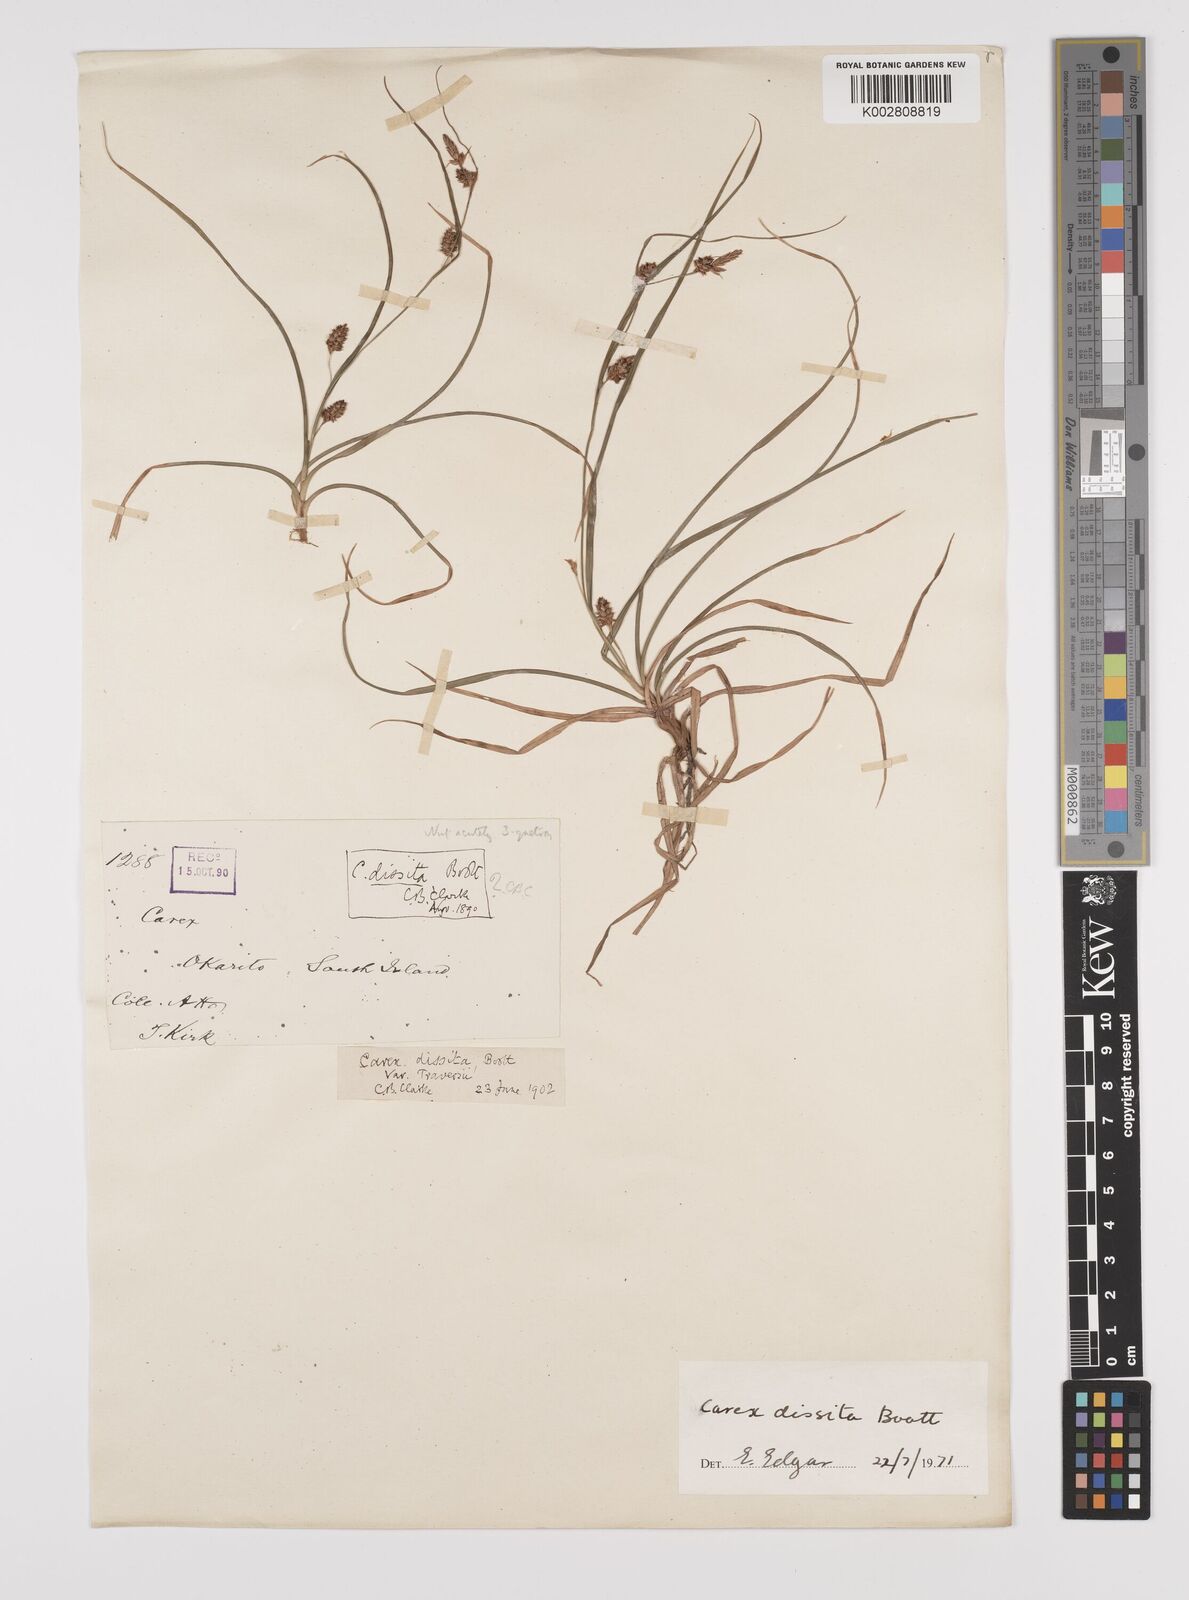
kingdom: Plantae
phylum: Tracheophyta
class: Liliopsida
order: Poales
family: Cyperaceae
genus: Carex
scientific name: Carex traversii
